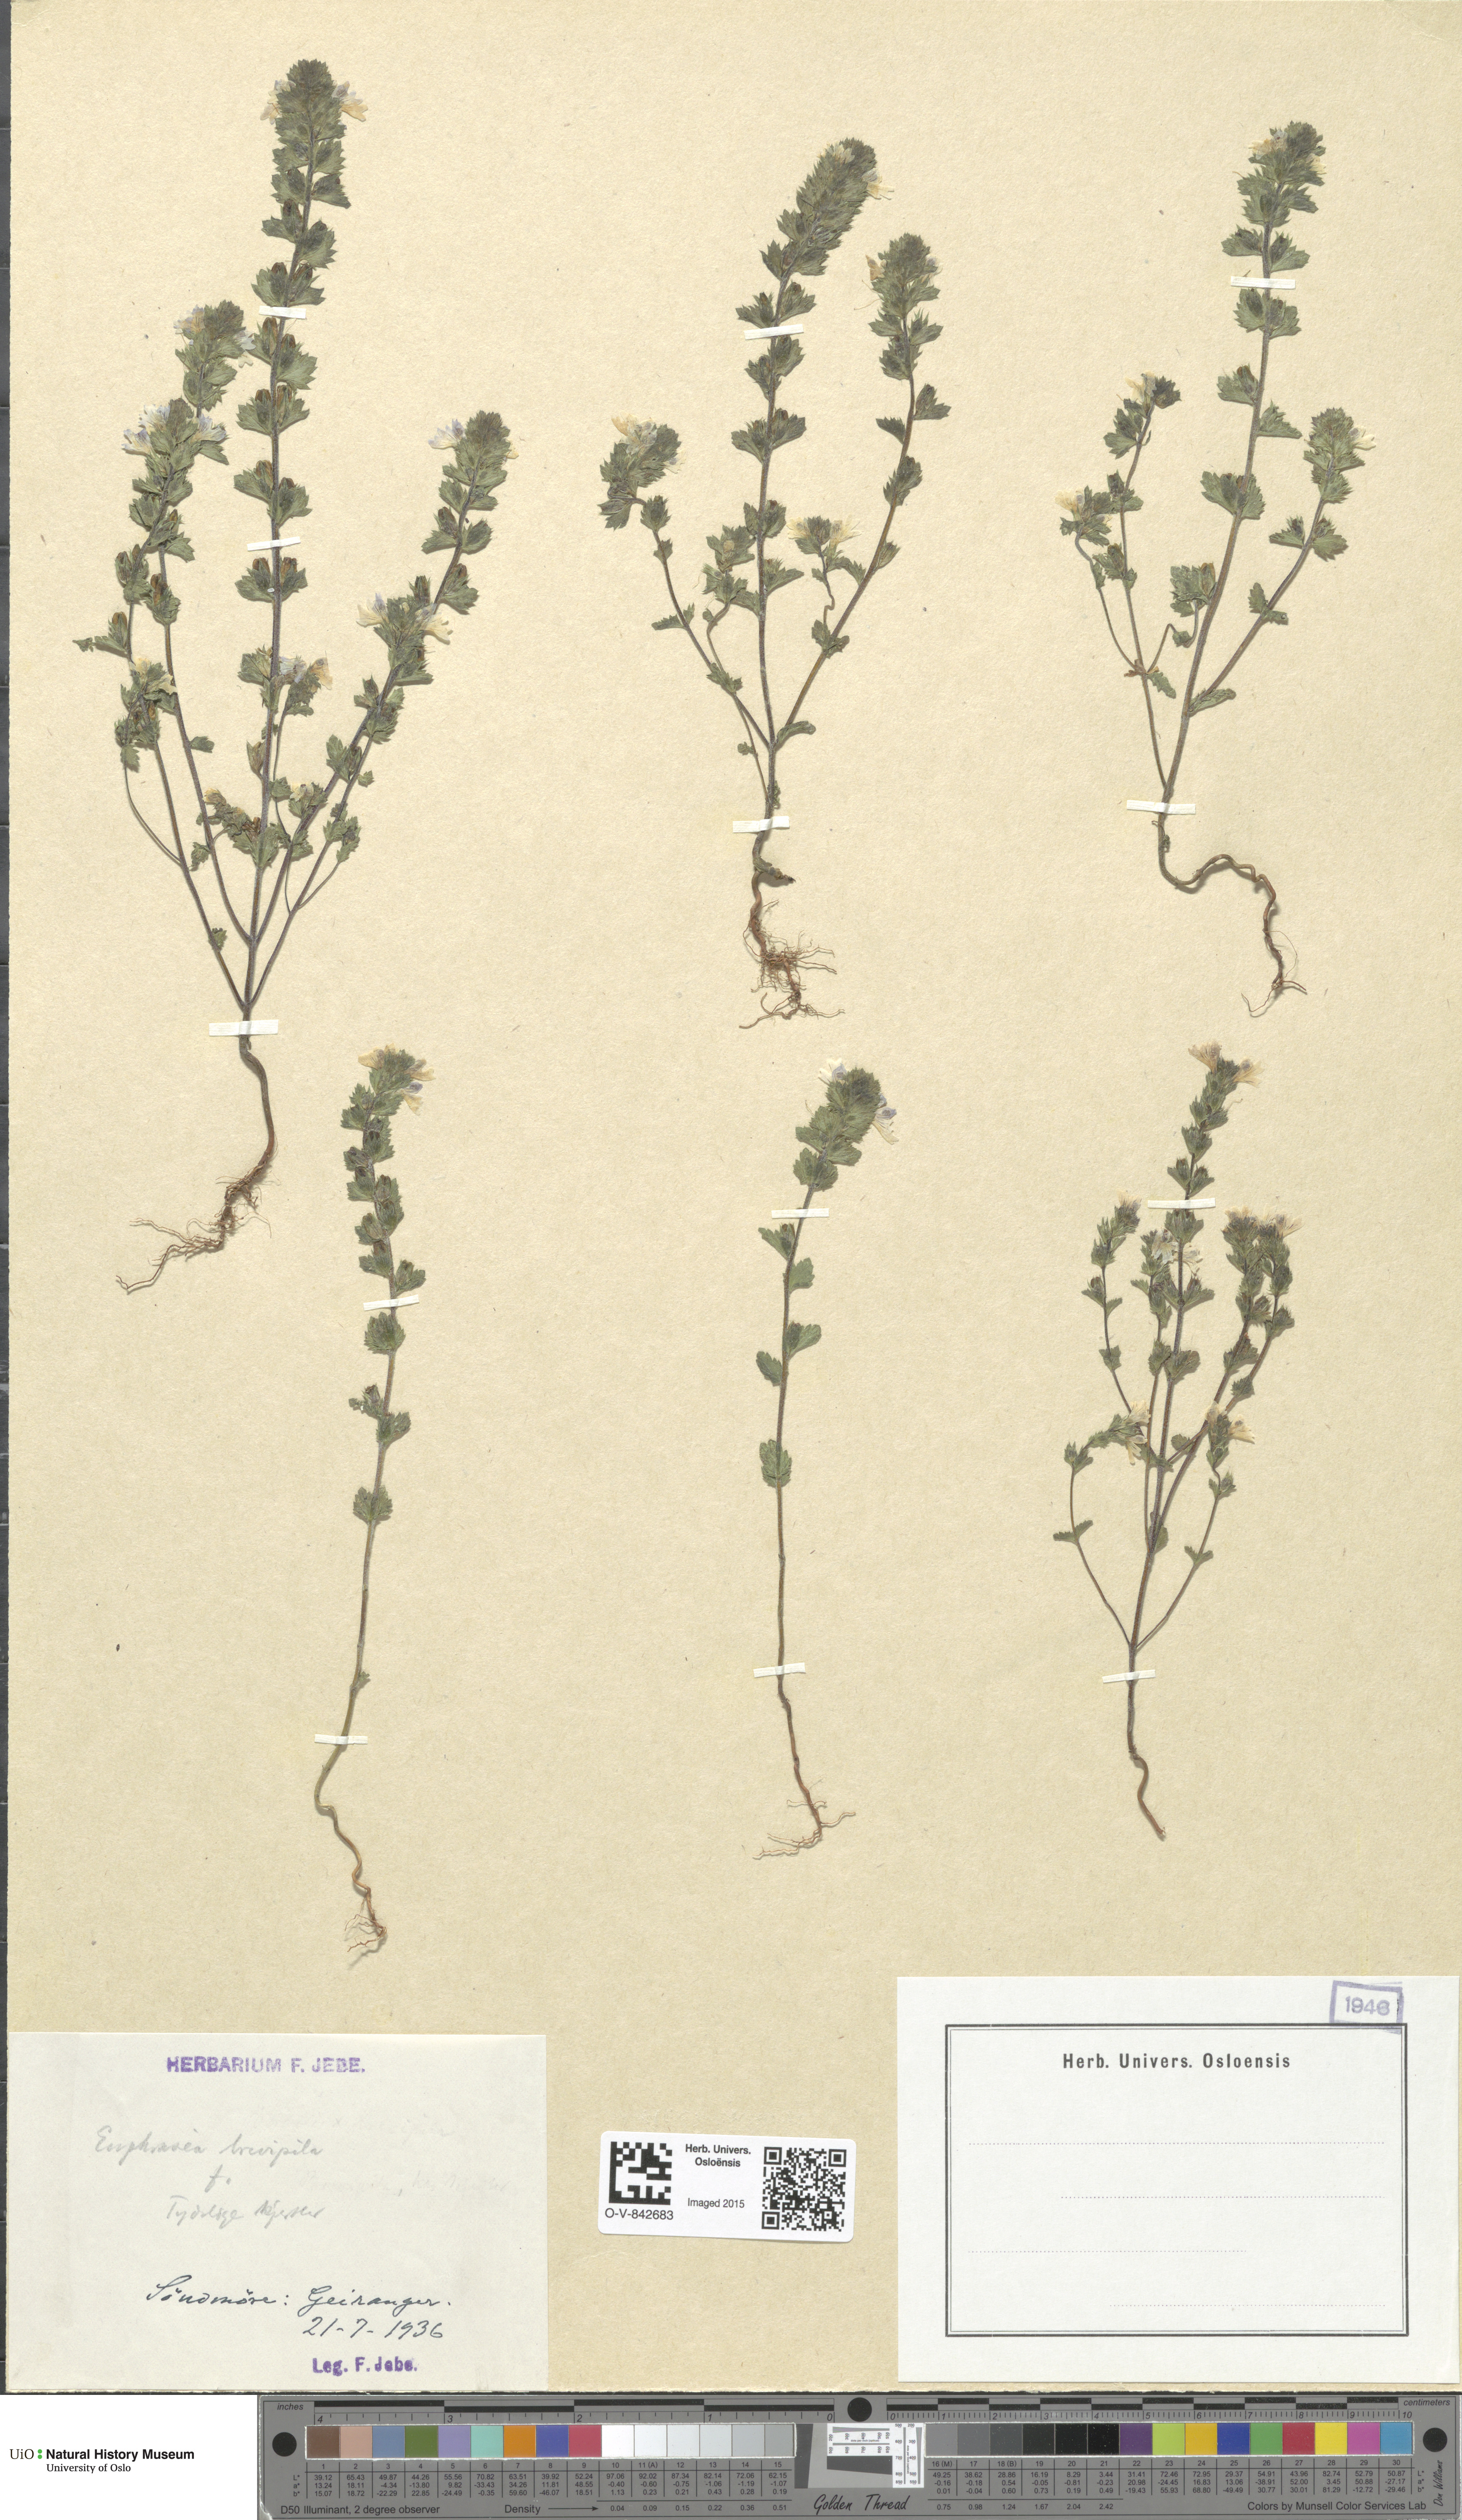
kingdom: Plantae
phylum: Tracheophyta
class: Magnoliopsida
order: Lamiales
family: Orobanchaceae
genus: Euphrasia
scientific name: Euphrasia vernalis
